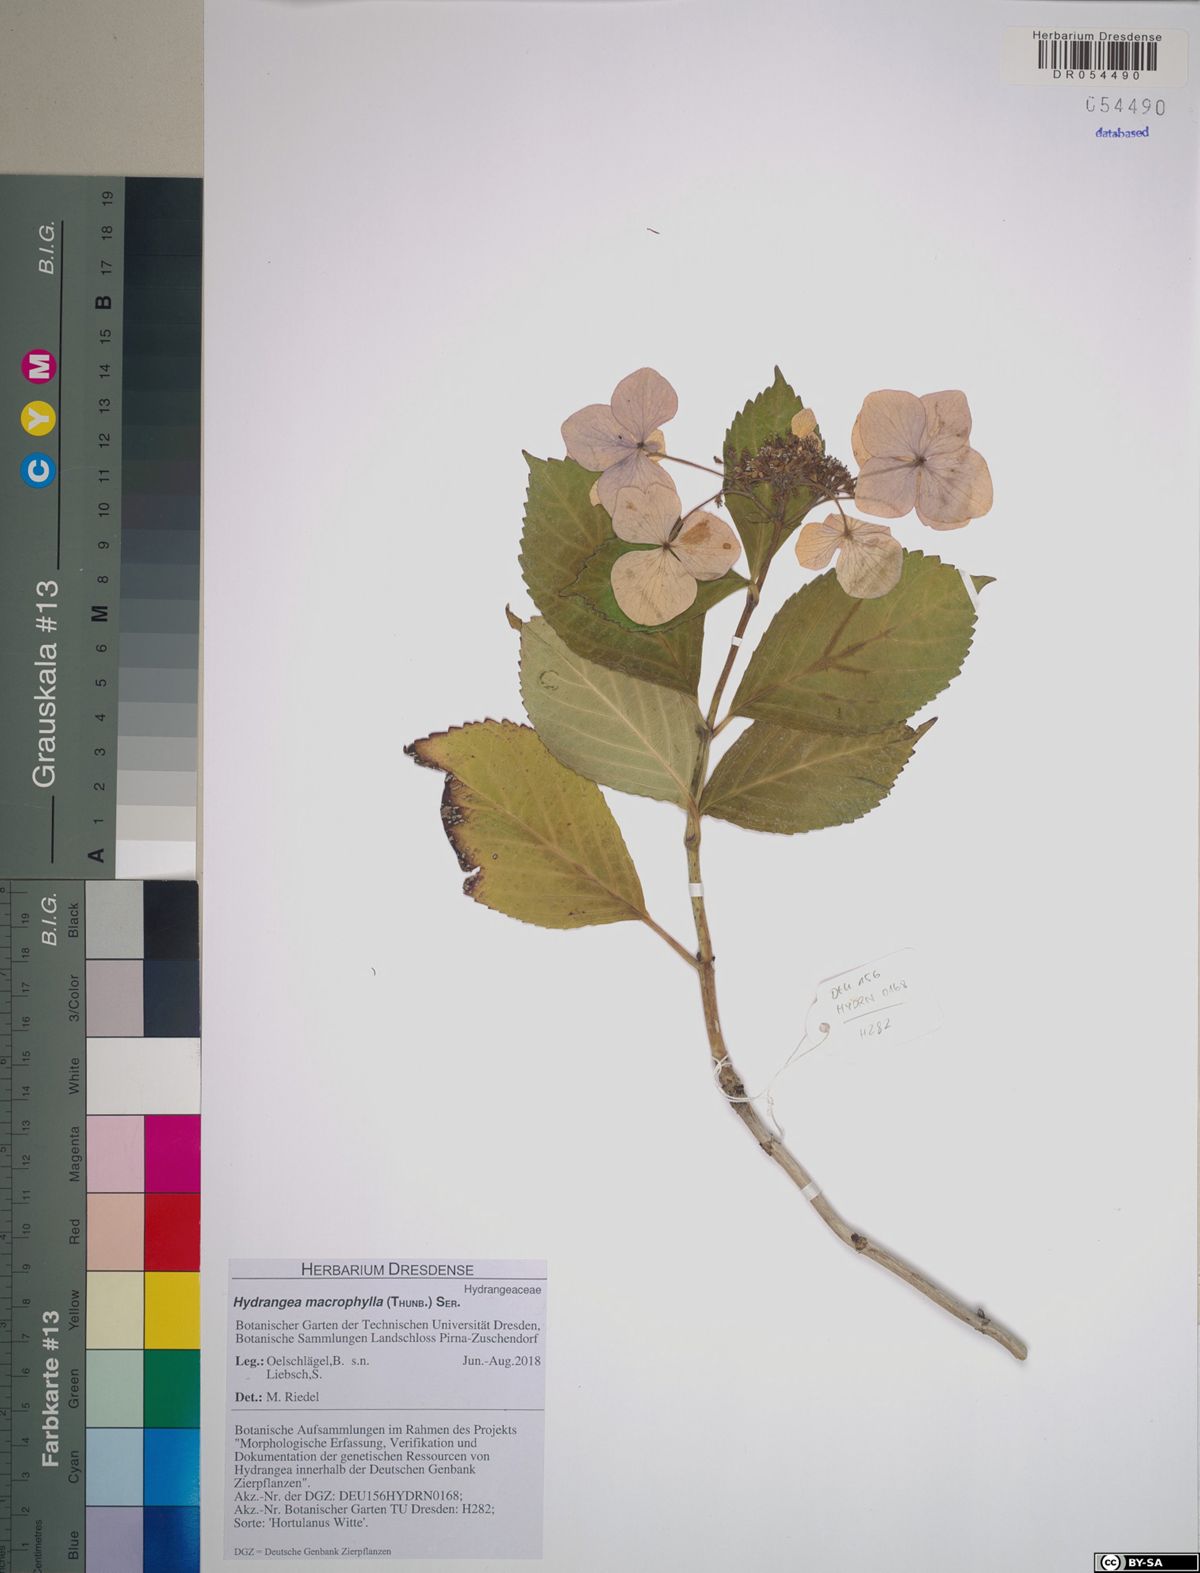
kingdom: Plantae
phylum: Tracheophyta
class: Magnoliopsida
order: Cornales
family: Hydrangeaceae
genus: Hydrangea
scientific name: Hydrangea macrophylla
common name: Hydrangea
